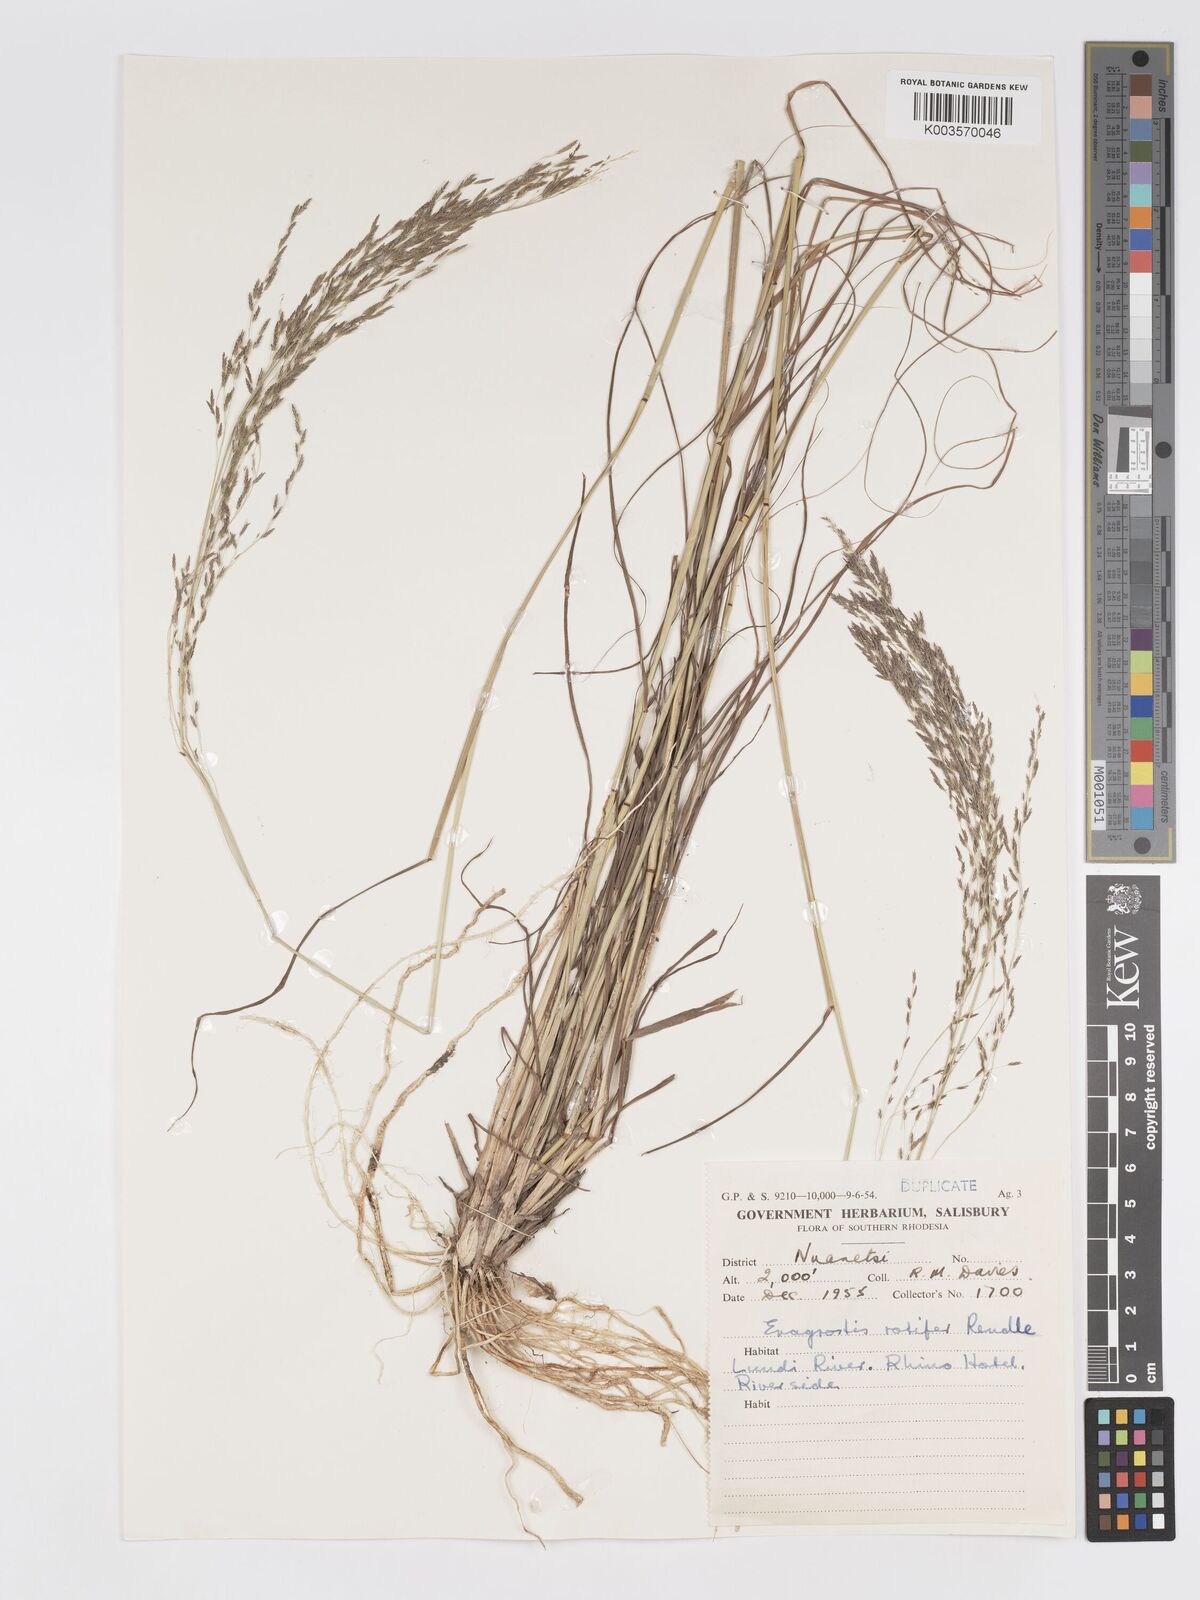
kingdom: Plantae
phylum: Tracheophyta
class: Liliopsida
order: Poales
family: Poaceae
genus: Eragrostis
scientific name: Eragrostis rotifer
